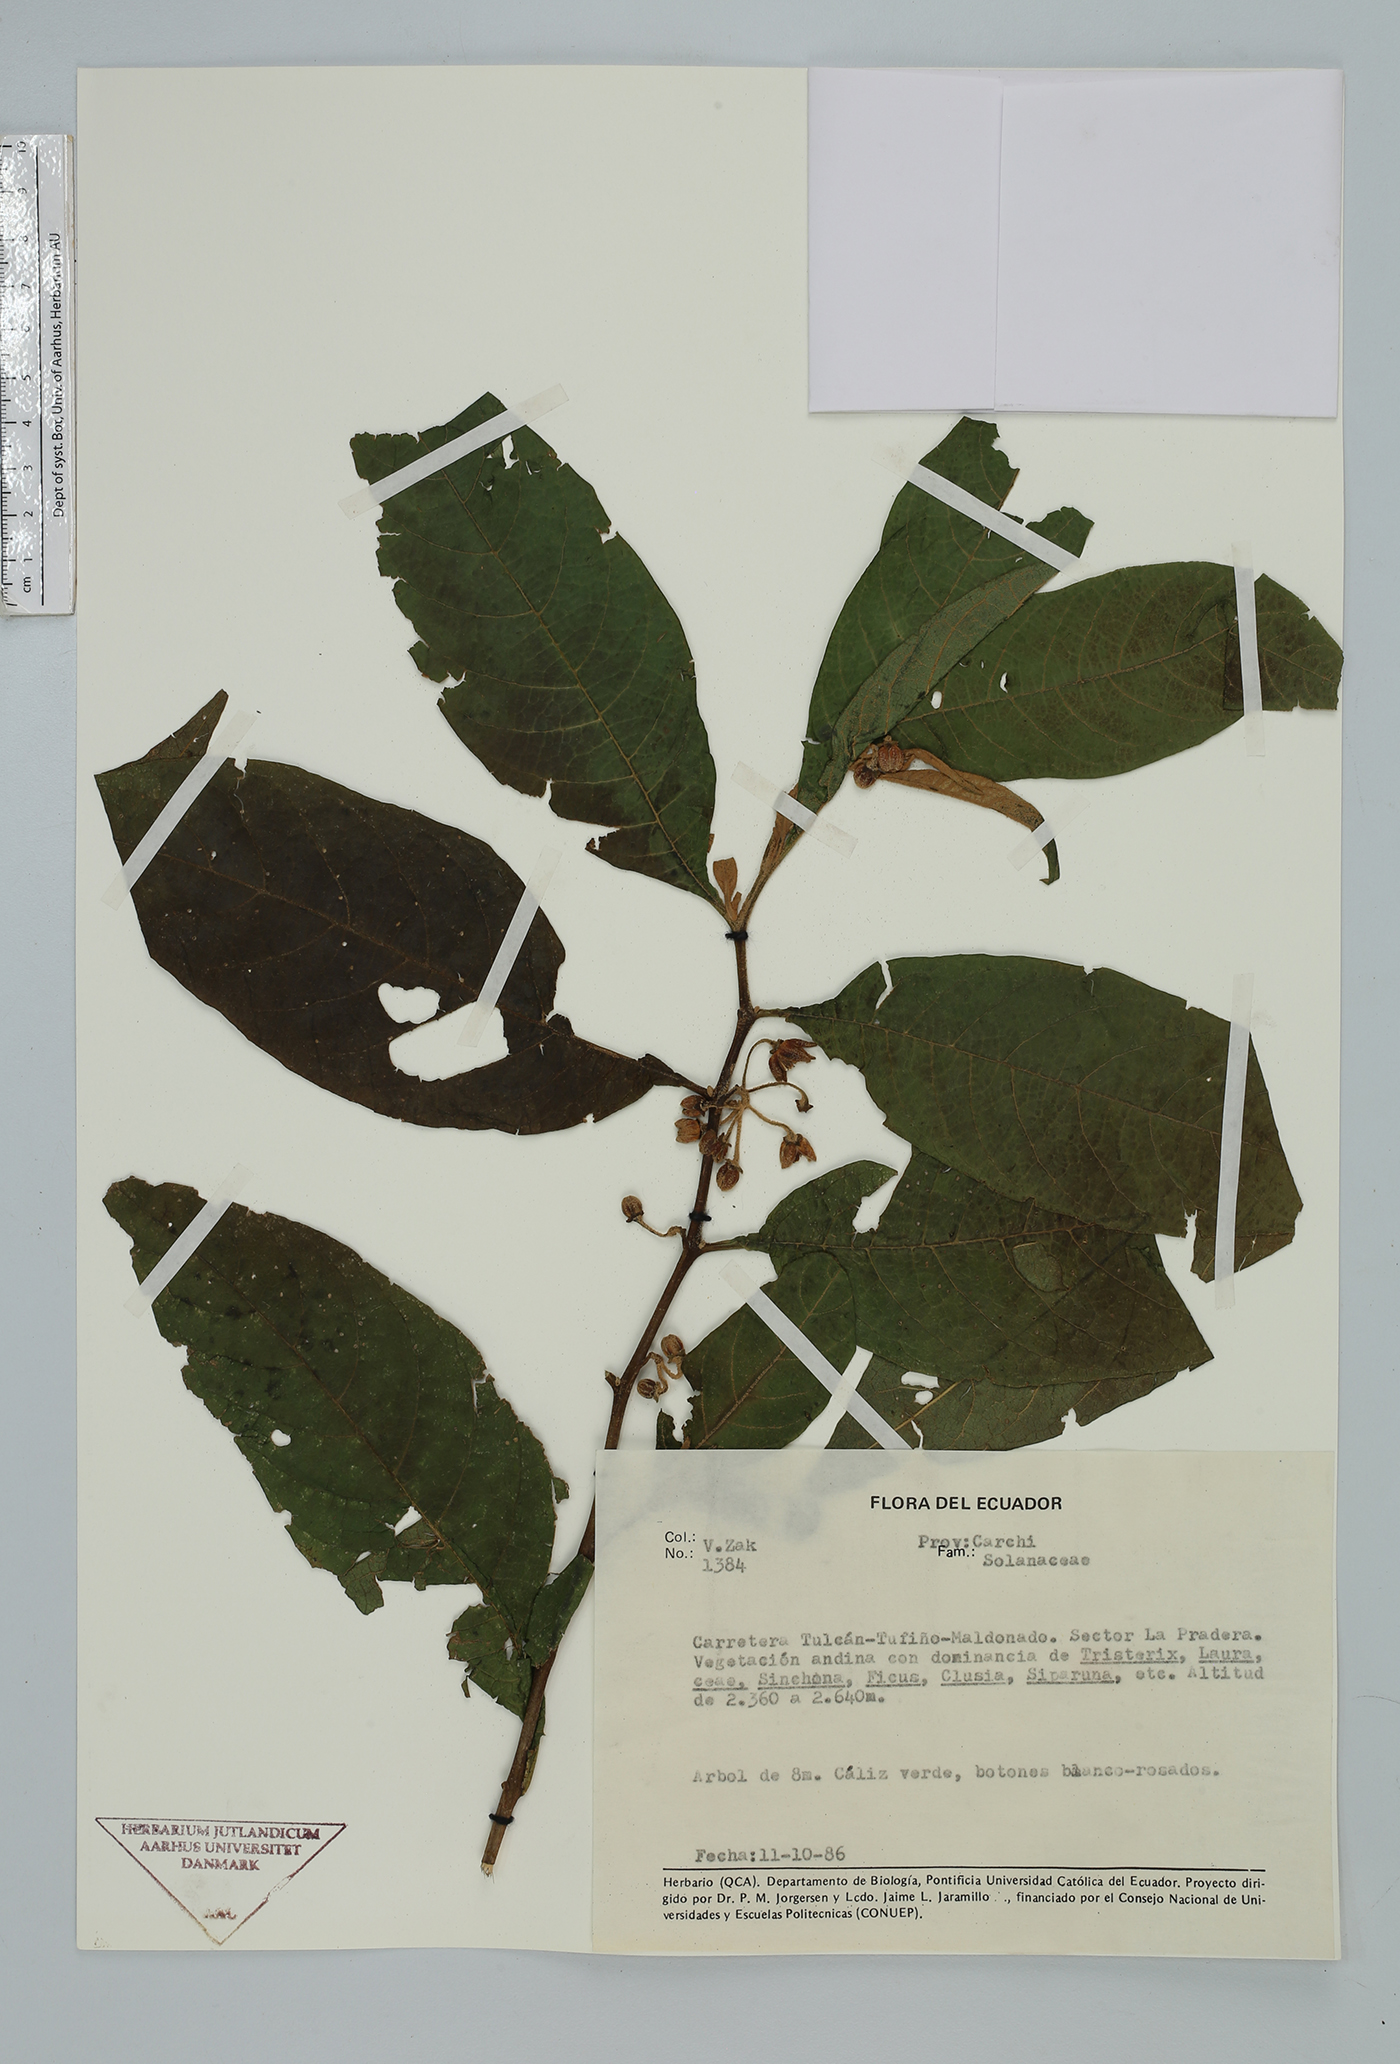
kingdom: Plantae
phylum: Tracheophyta
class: Magnoliopsida
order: Solanales
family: Solanaceae
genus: Solanum
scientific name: Solanum
